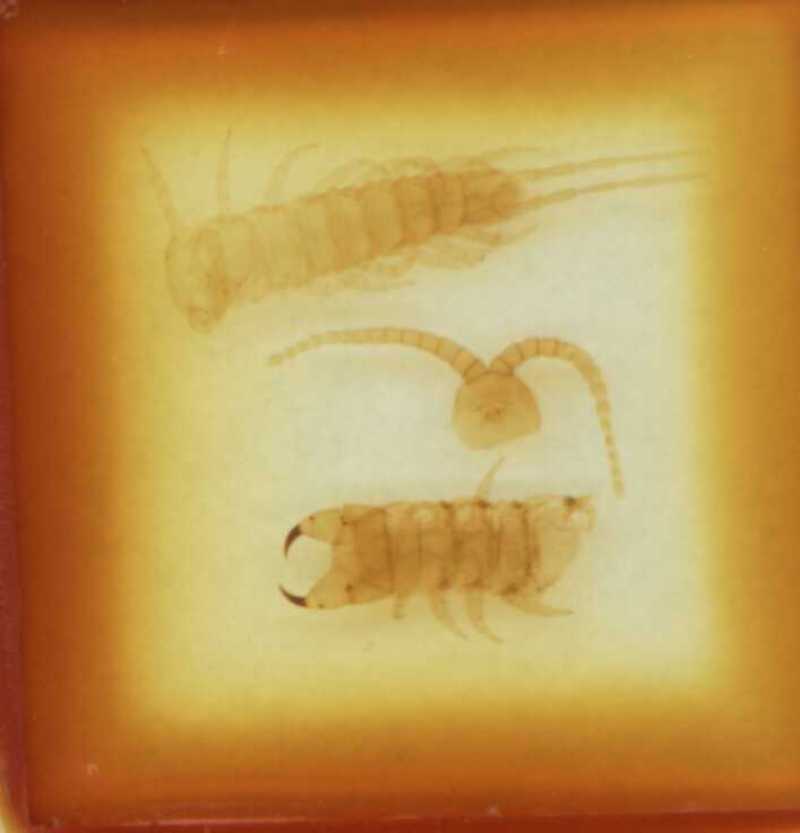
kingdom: Animalia
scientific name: Animalia
